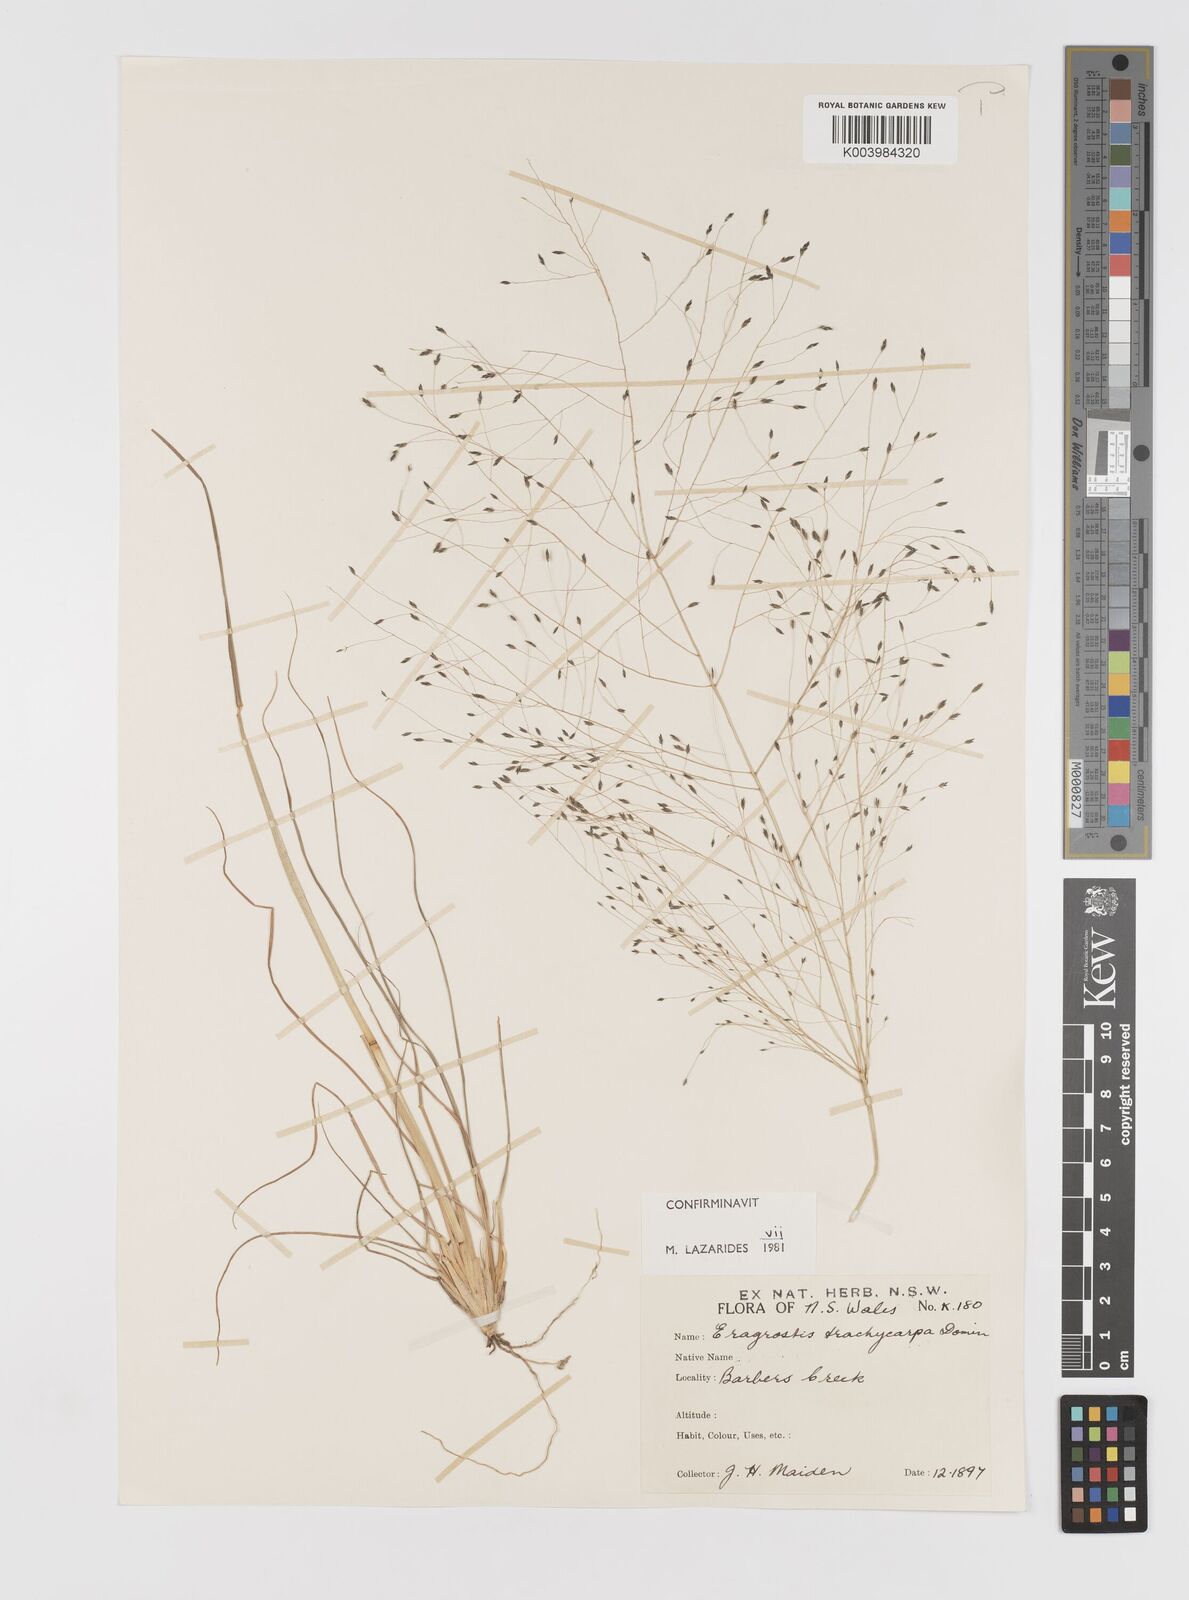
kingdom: Plantae
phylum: Tracheophyta
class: Liliopsida
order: Poales
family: Poaceae
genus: Eragrostis
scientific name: Eragrostis trachycarpa
